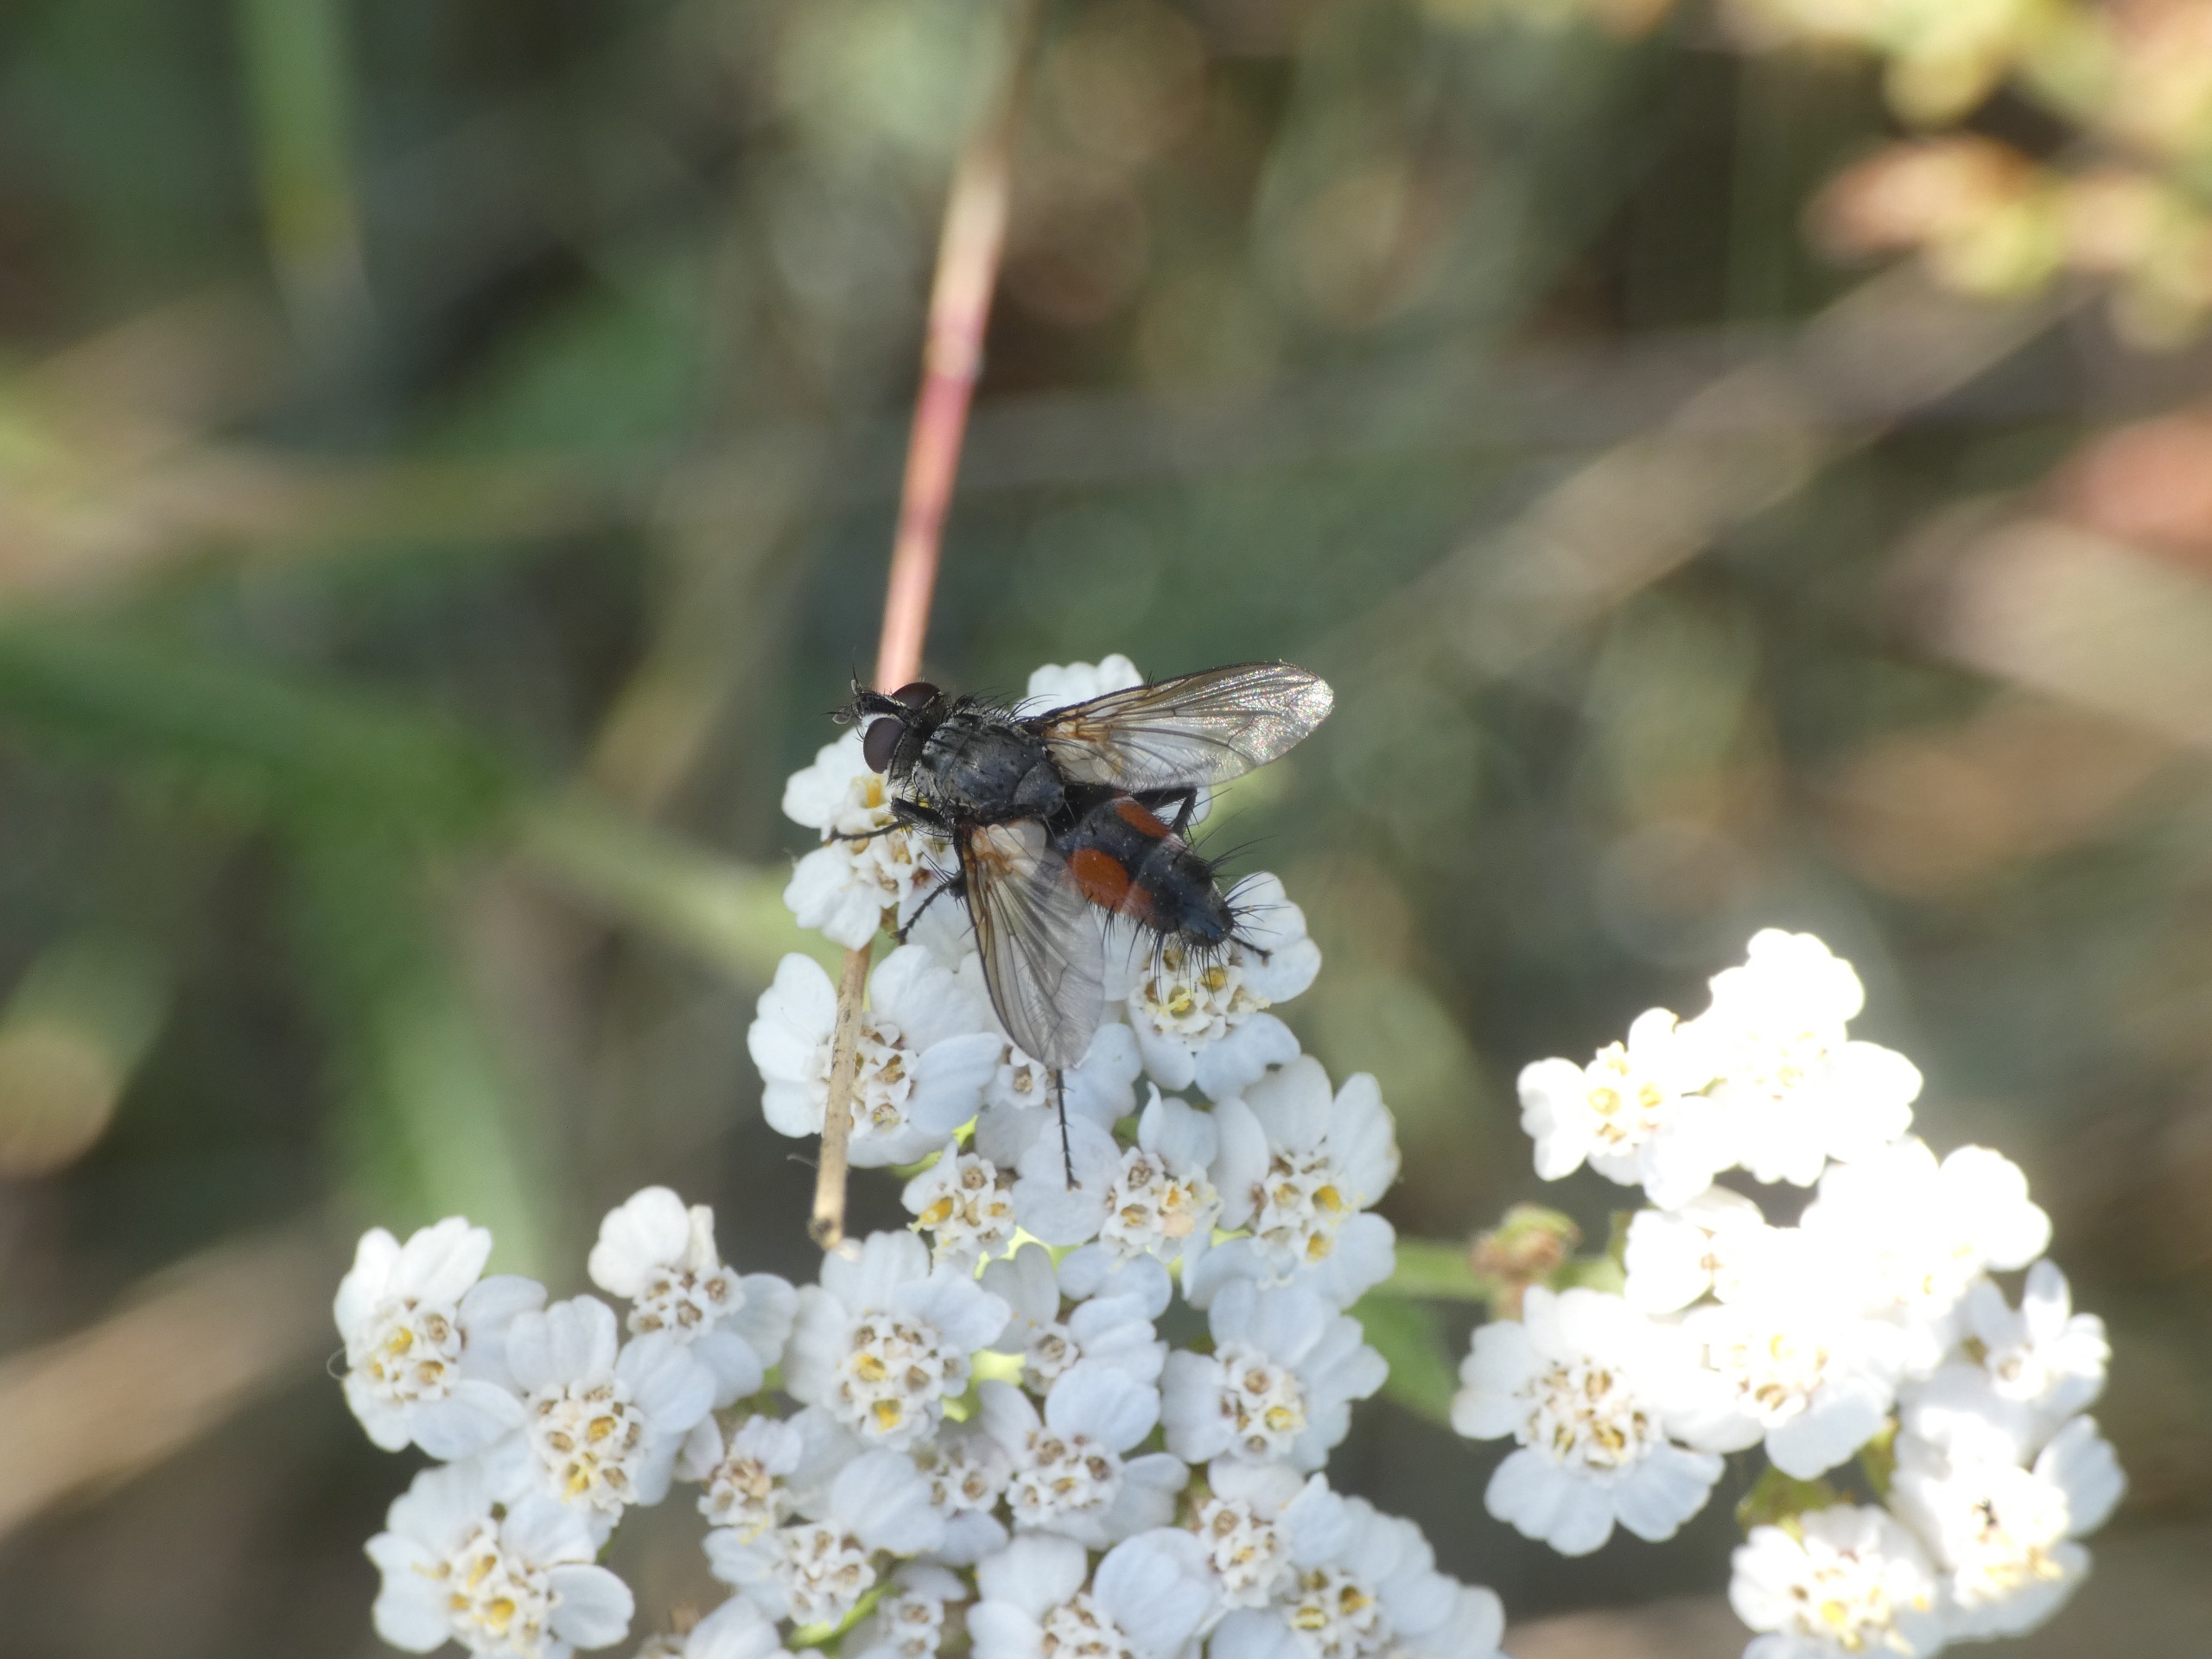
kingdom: Plantae
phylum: Tracheophyta
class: Magnoliopsida
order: Asterales
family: Asteraceae
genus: Achillea
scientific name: Achillea millefolium
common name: Almindelig røllike
